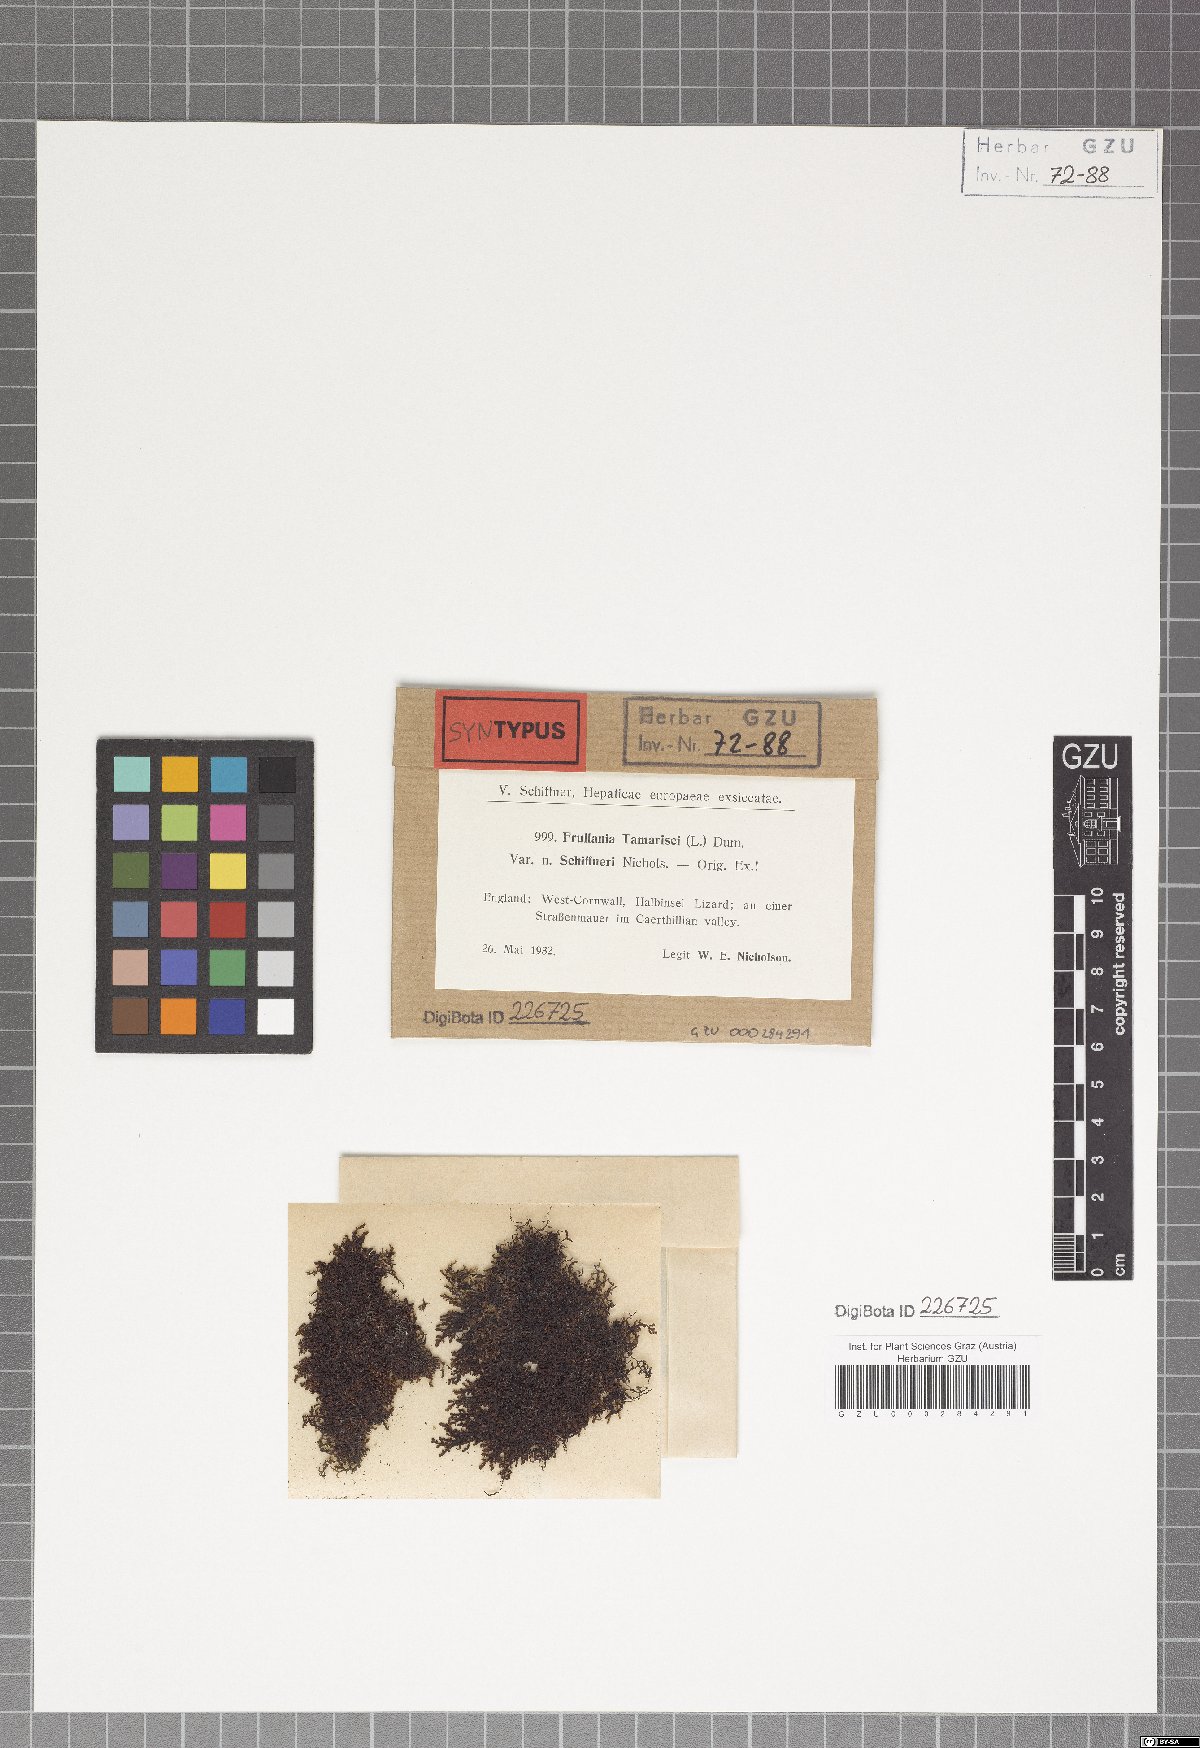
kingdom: Plantae
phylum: Marchantiophyta
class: Jungermanniopsida
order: Porellales
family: Frullaniaceae
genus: Frullania
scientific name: Frullania tamarisci
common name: Tamarisk scalewort
